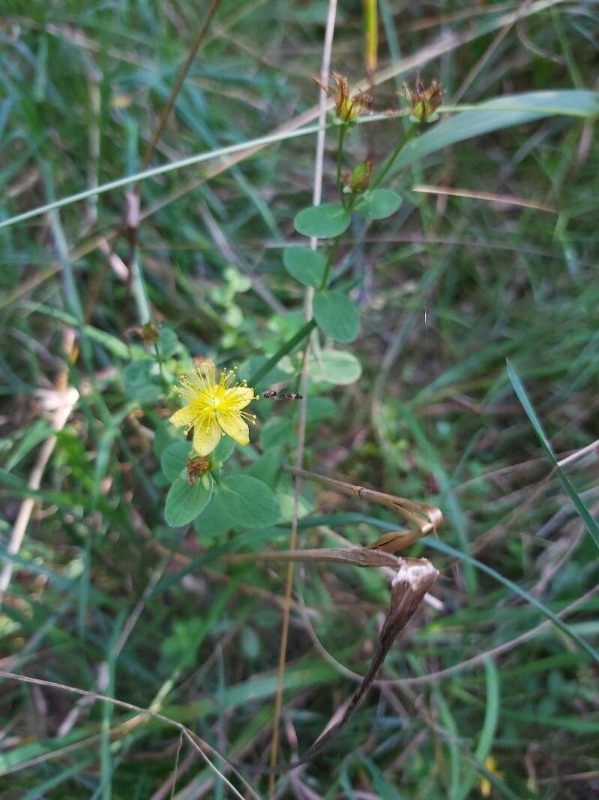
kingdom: Plantae
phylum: Tracheophyta
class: Magnoliopsida
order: Malpighiales
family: Hypericaceae
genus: Hypericum
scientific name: Hypericum maculatum
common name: Kantet perikon
